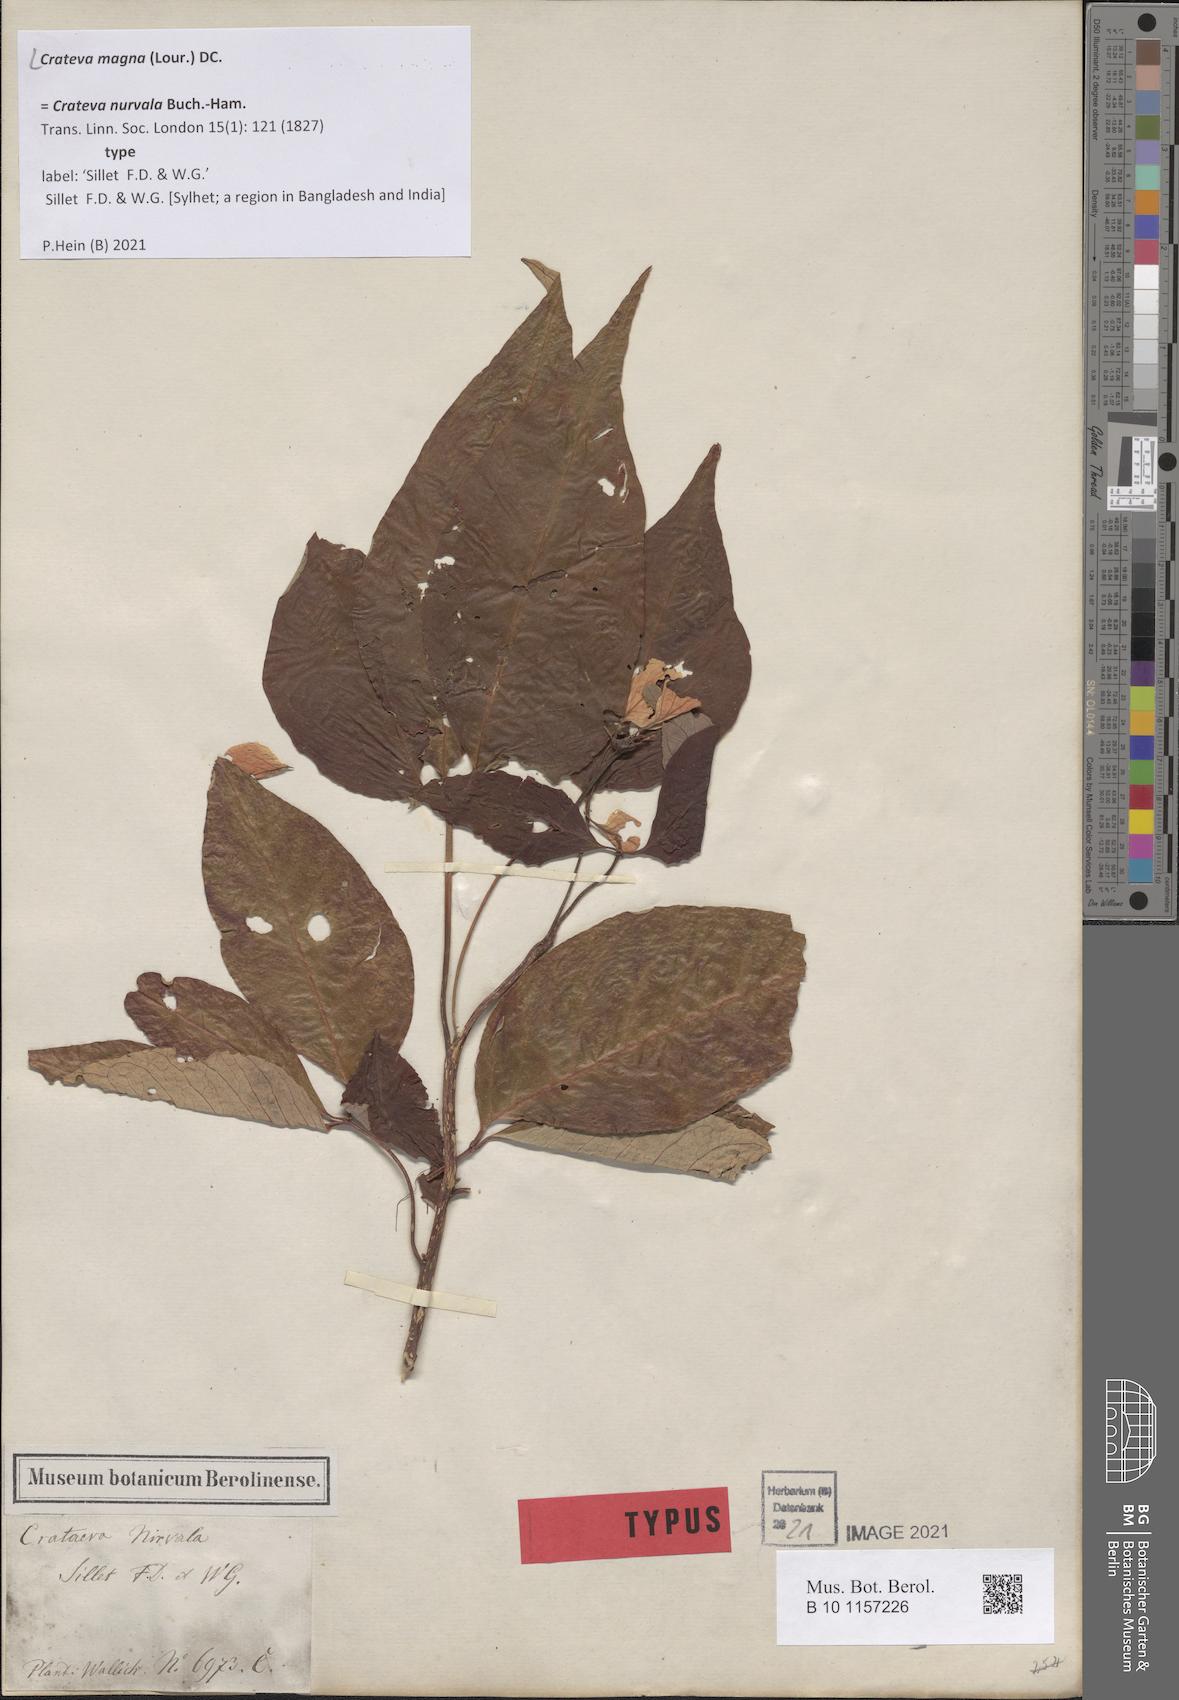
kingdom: Plantae
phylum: Tracheophyta
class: Magnoliopsida
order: Brassicales
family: Capparaceae
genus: Crateva
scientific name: Crateva magna
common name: Three-leaf-caper
